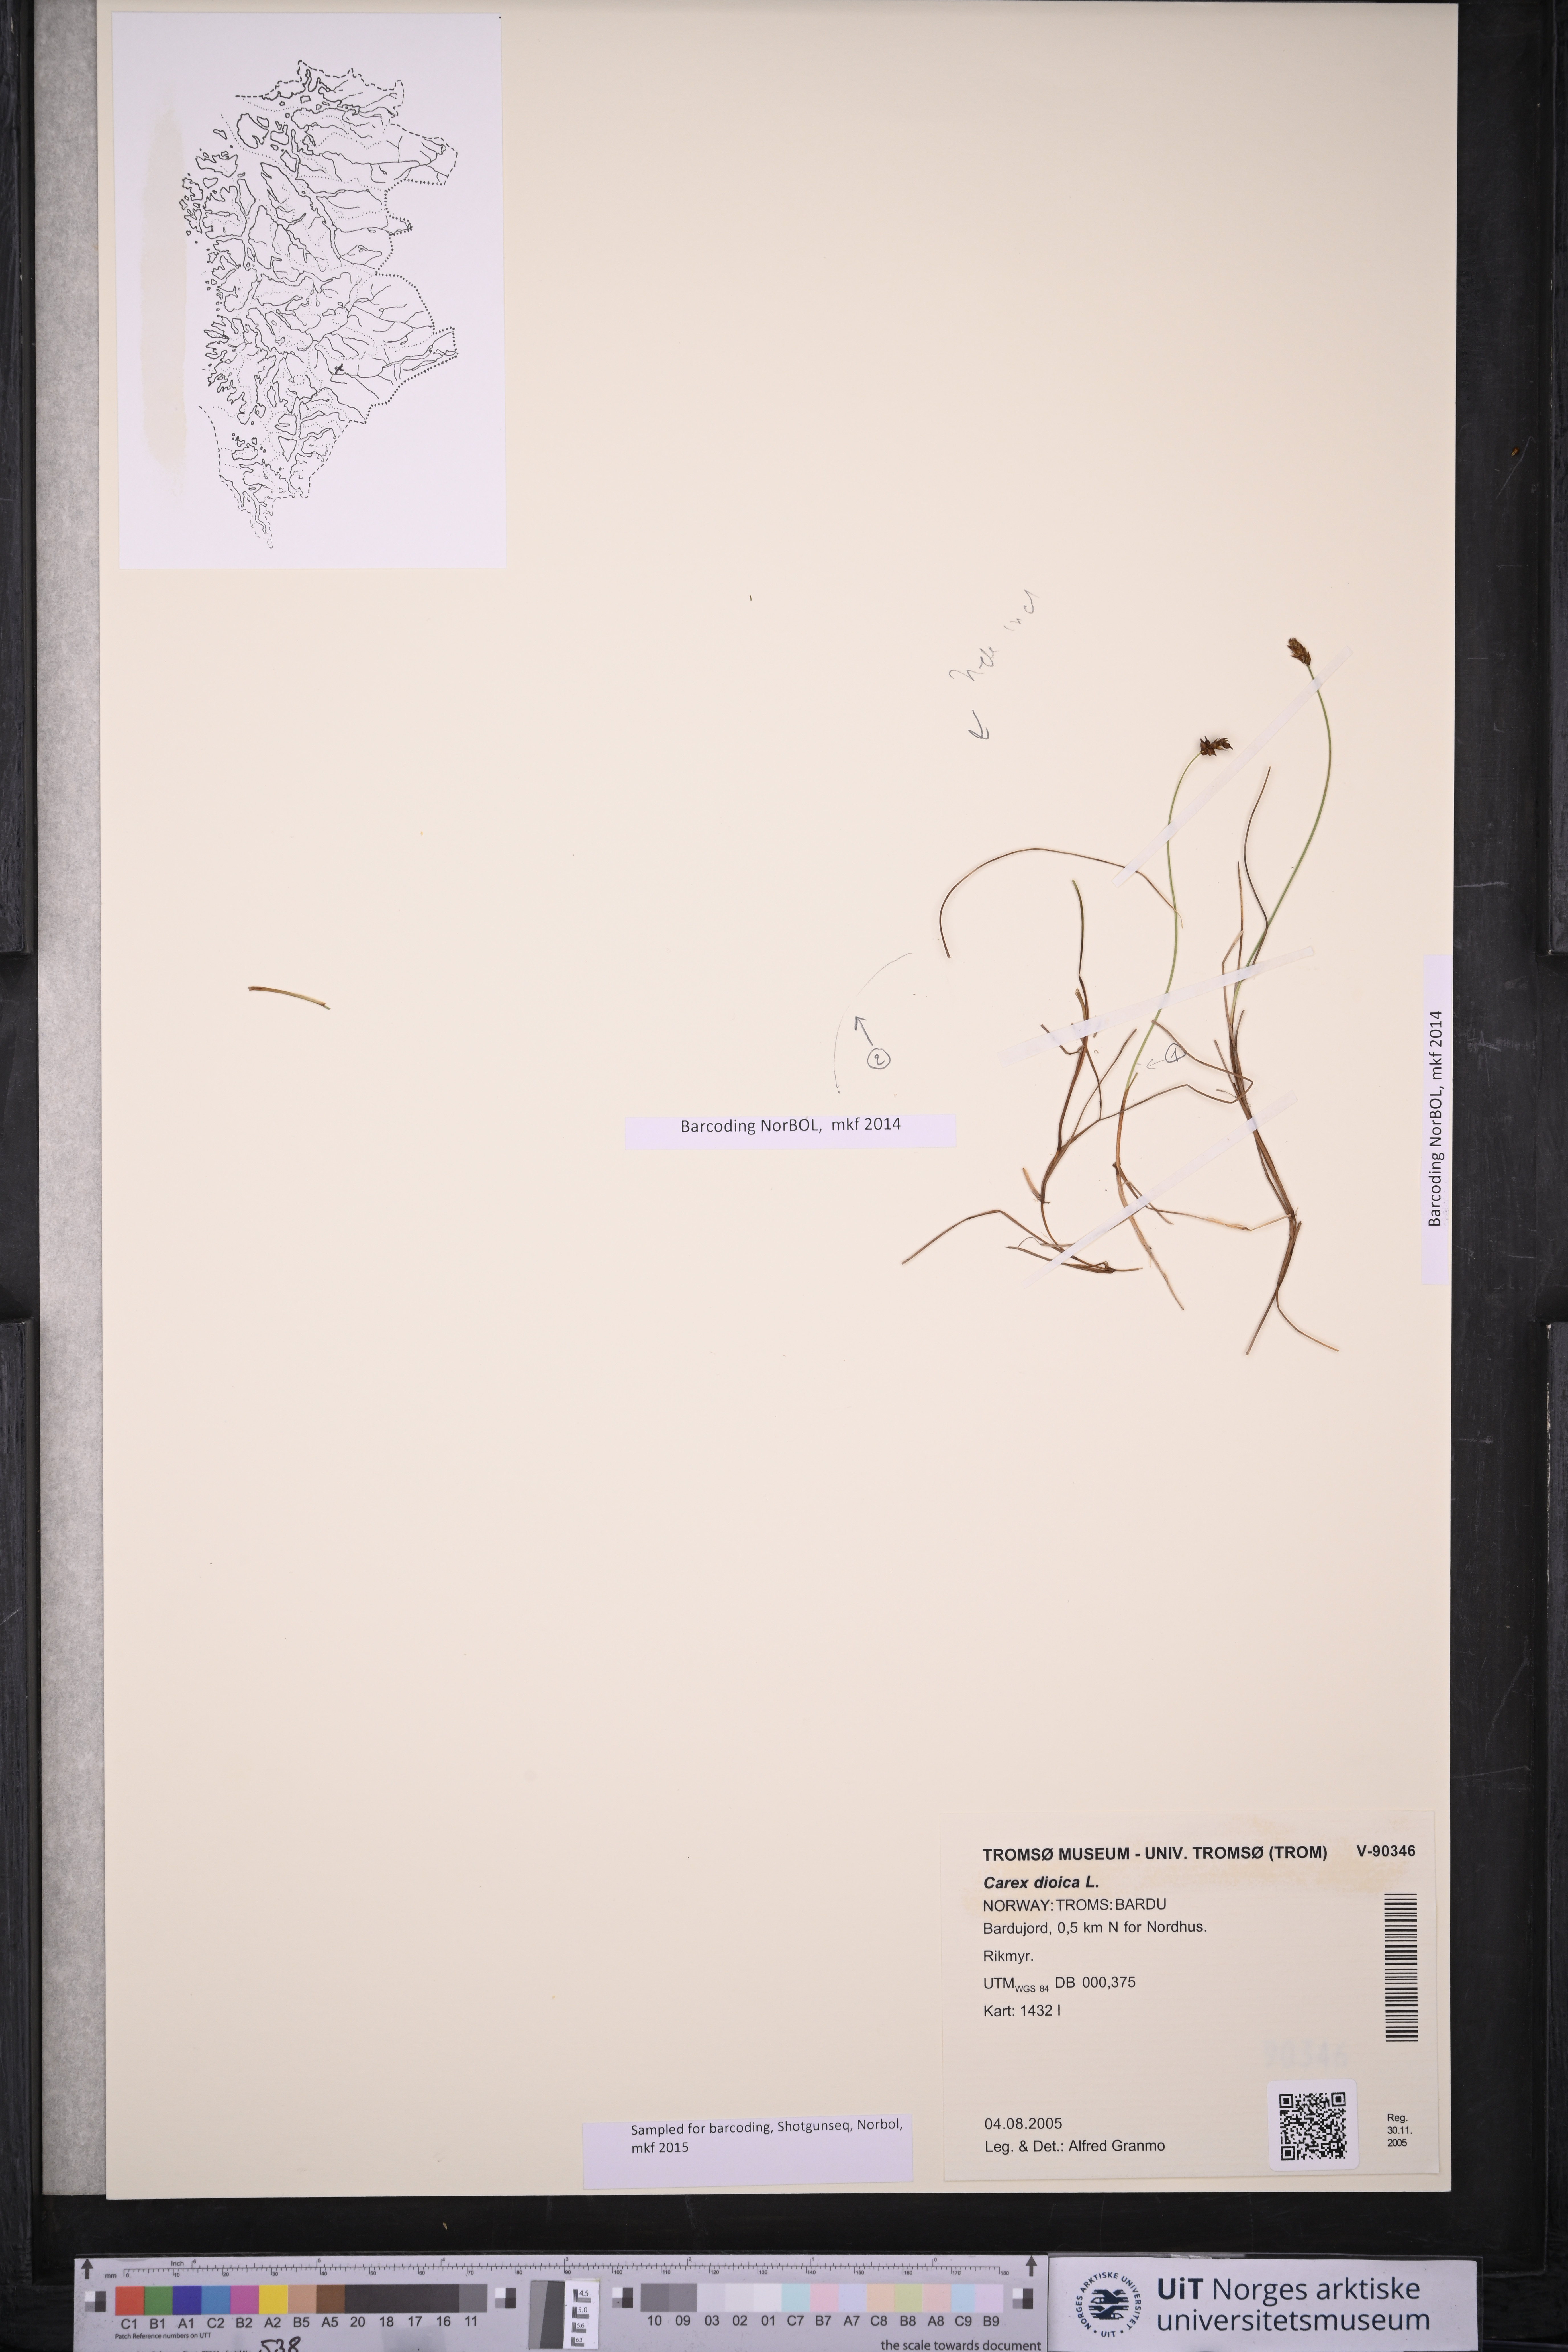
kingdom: Plantae
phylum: Tracheophyta
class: Liliopsida
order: Poales
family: Cyperaceae
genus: Carex
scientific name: Carex dioica
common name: Dioecious sedge
